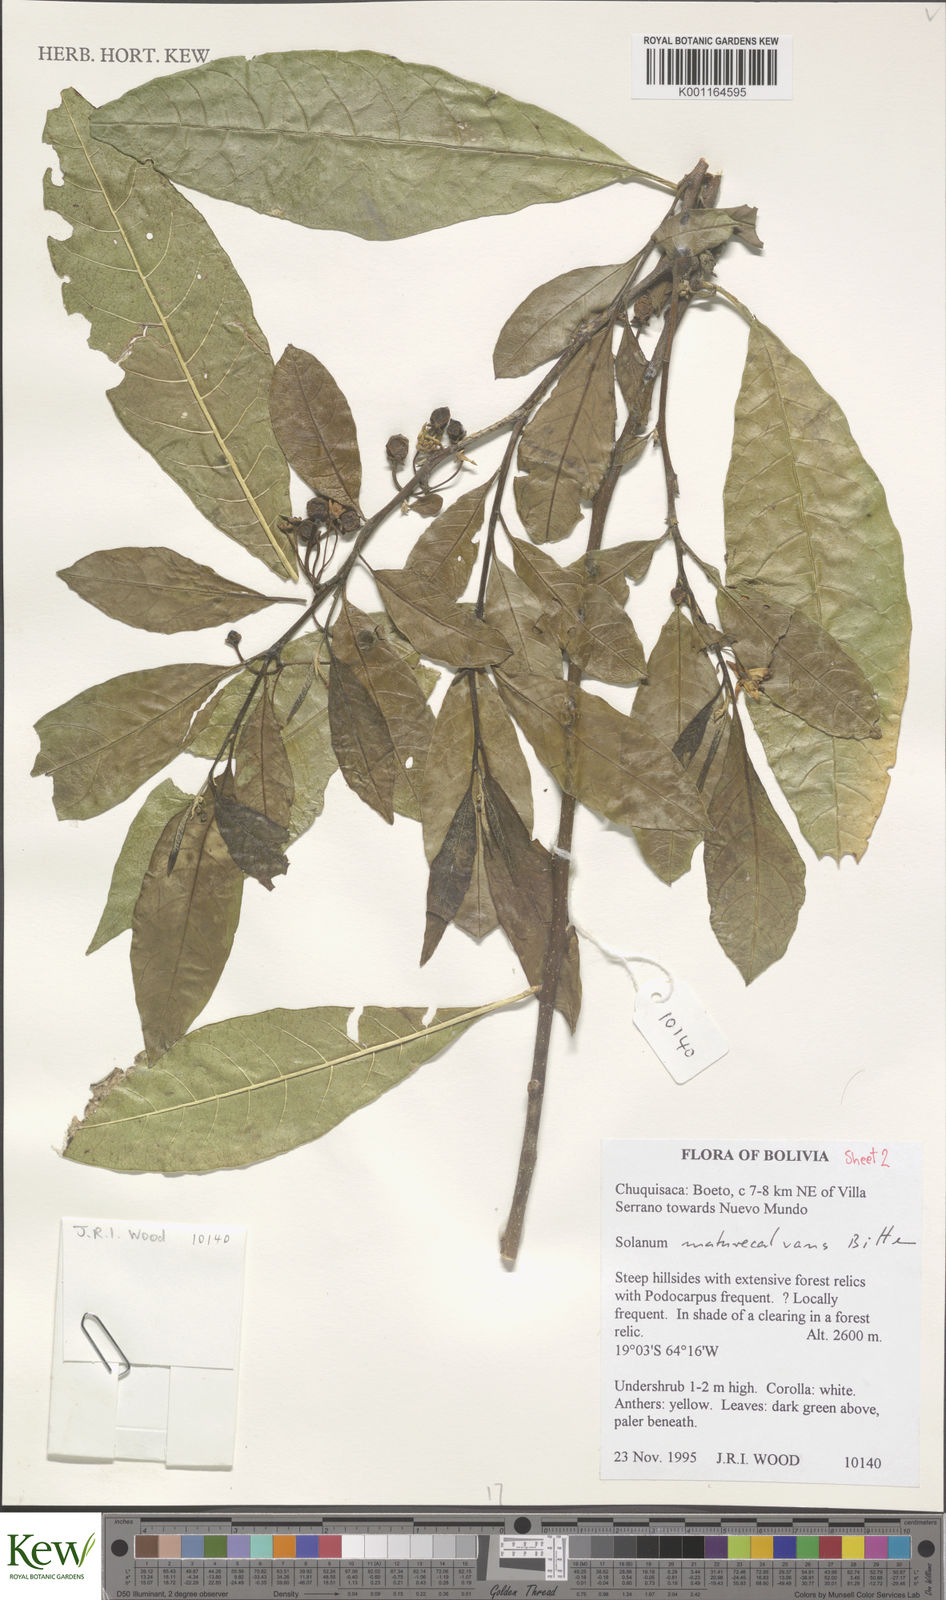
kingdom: Plantae
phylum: Tracheophyta
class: Magnoliopsida
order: Solanales
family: Solanaceae
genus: Solanum
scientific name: Solanum maturecalvans
